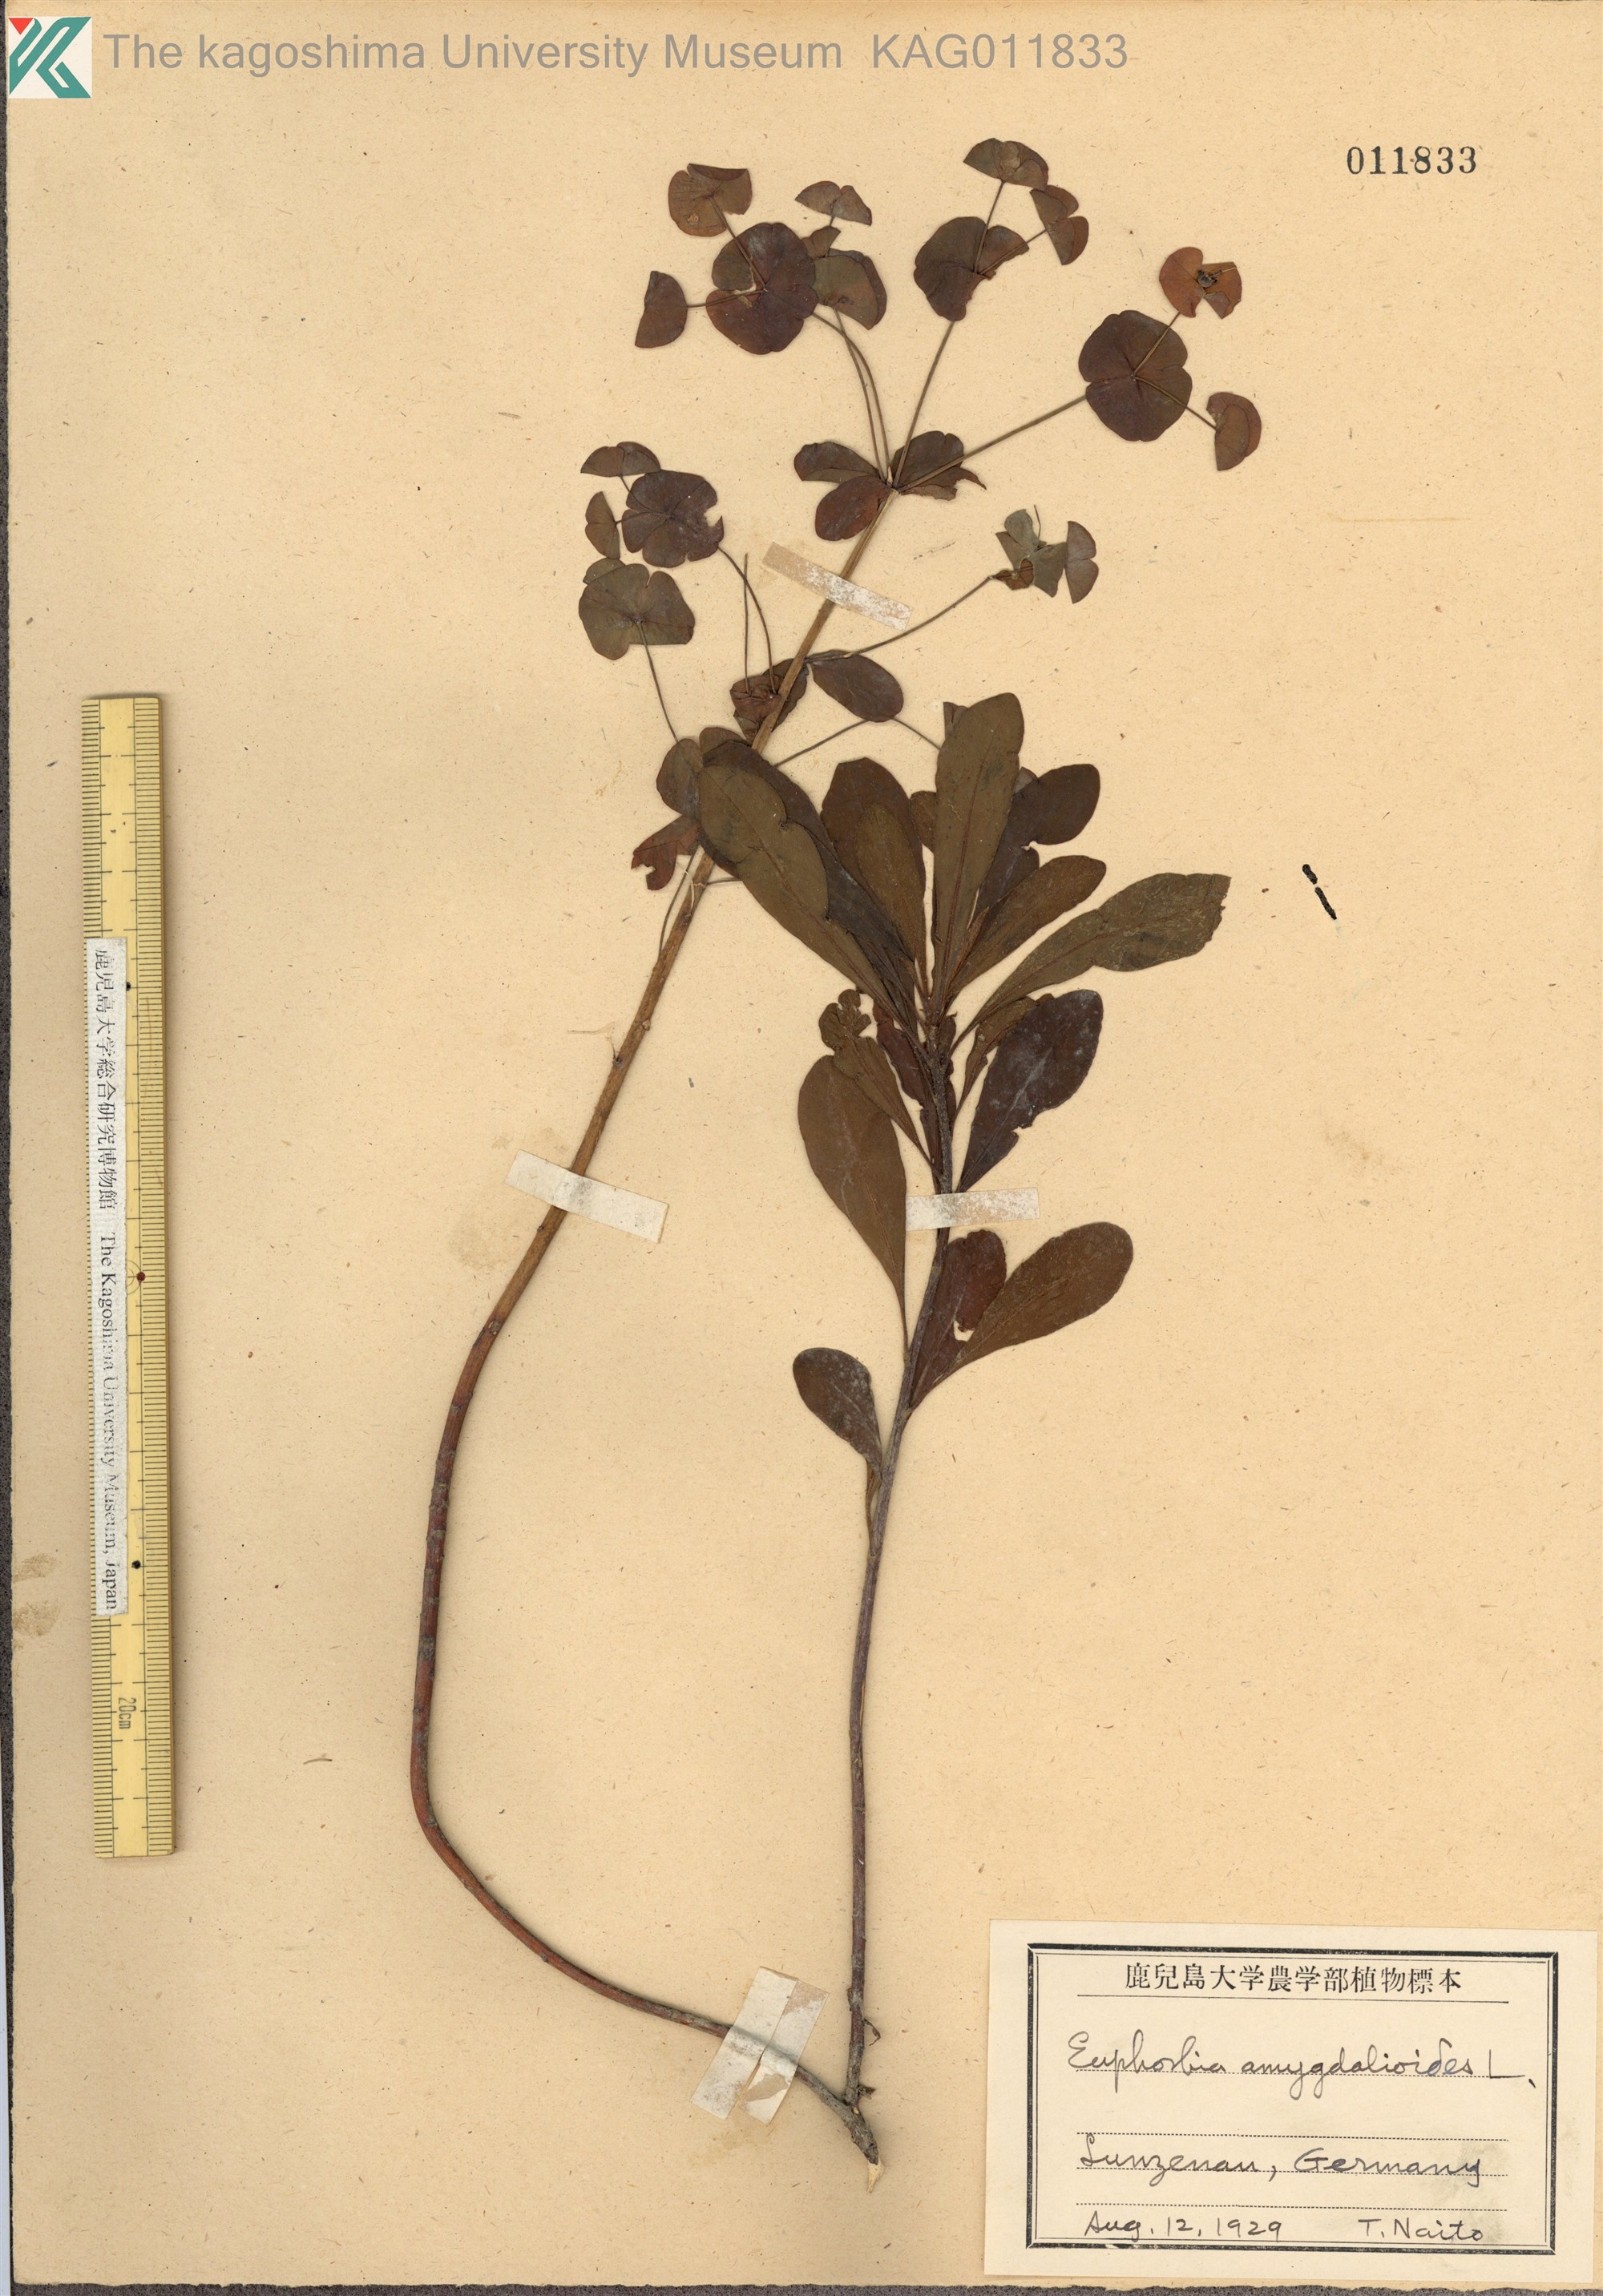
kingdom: Plantae
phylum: Tracheophyta
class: Magnoliopsida
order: Malpighiales
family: Euphorbiaceae
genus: Euphorbia
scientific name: Euphorbia amygdaloides
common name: Wood spurge
